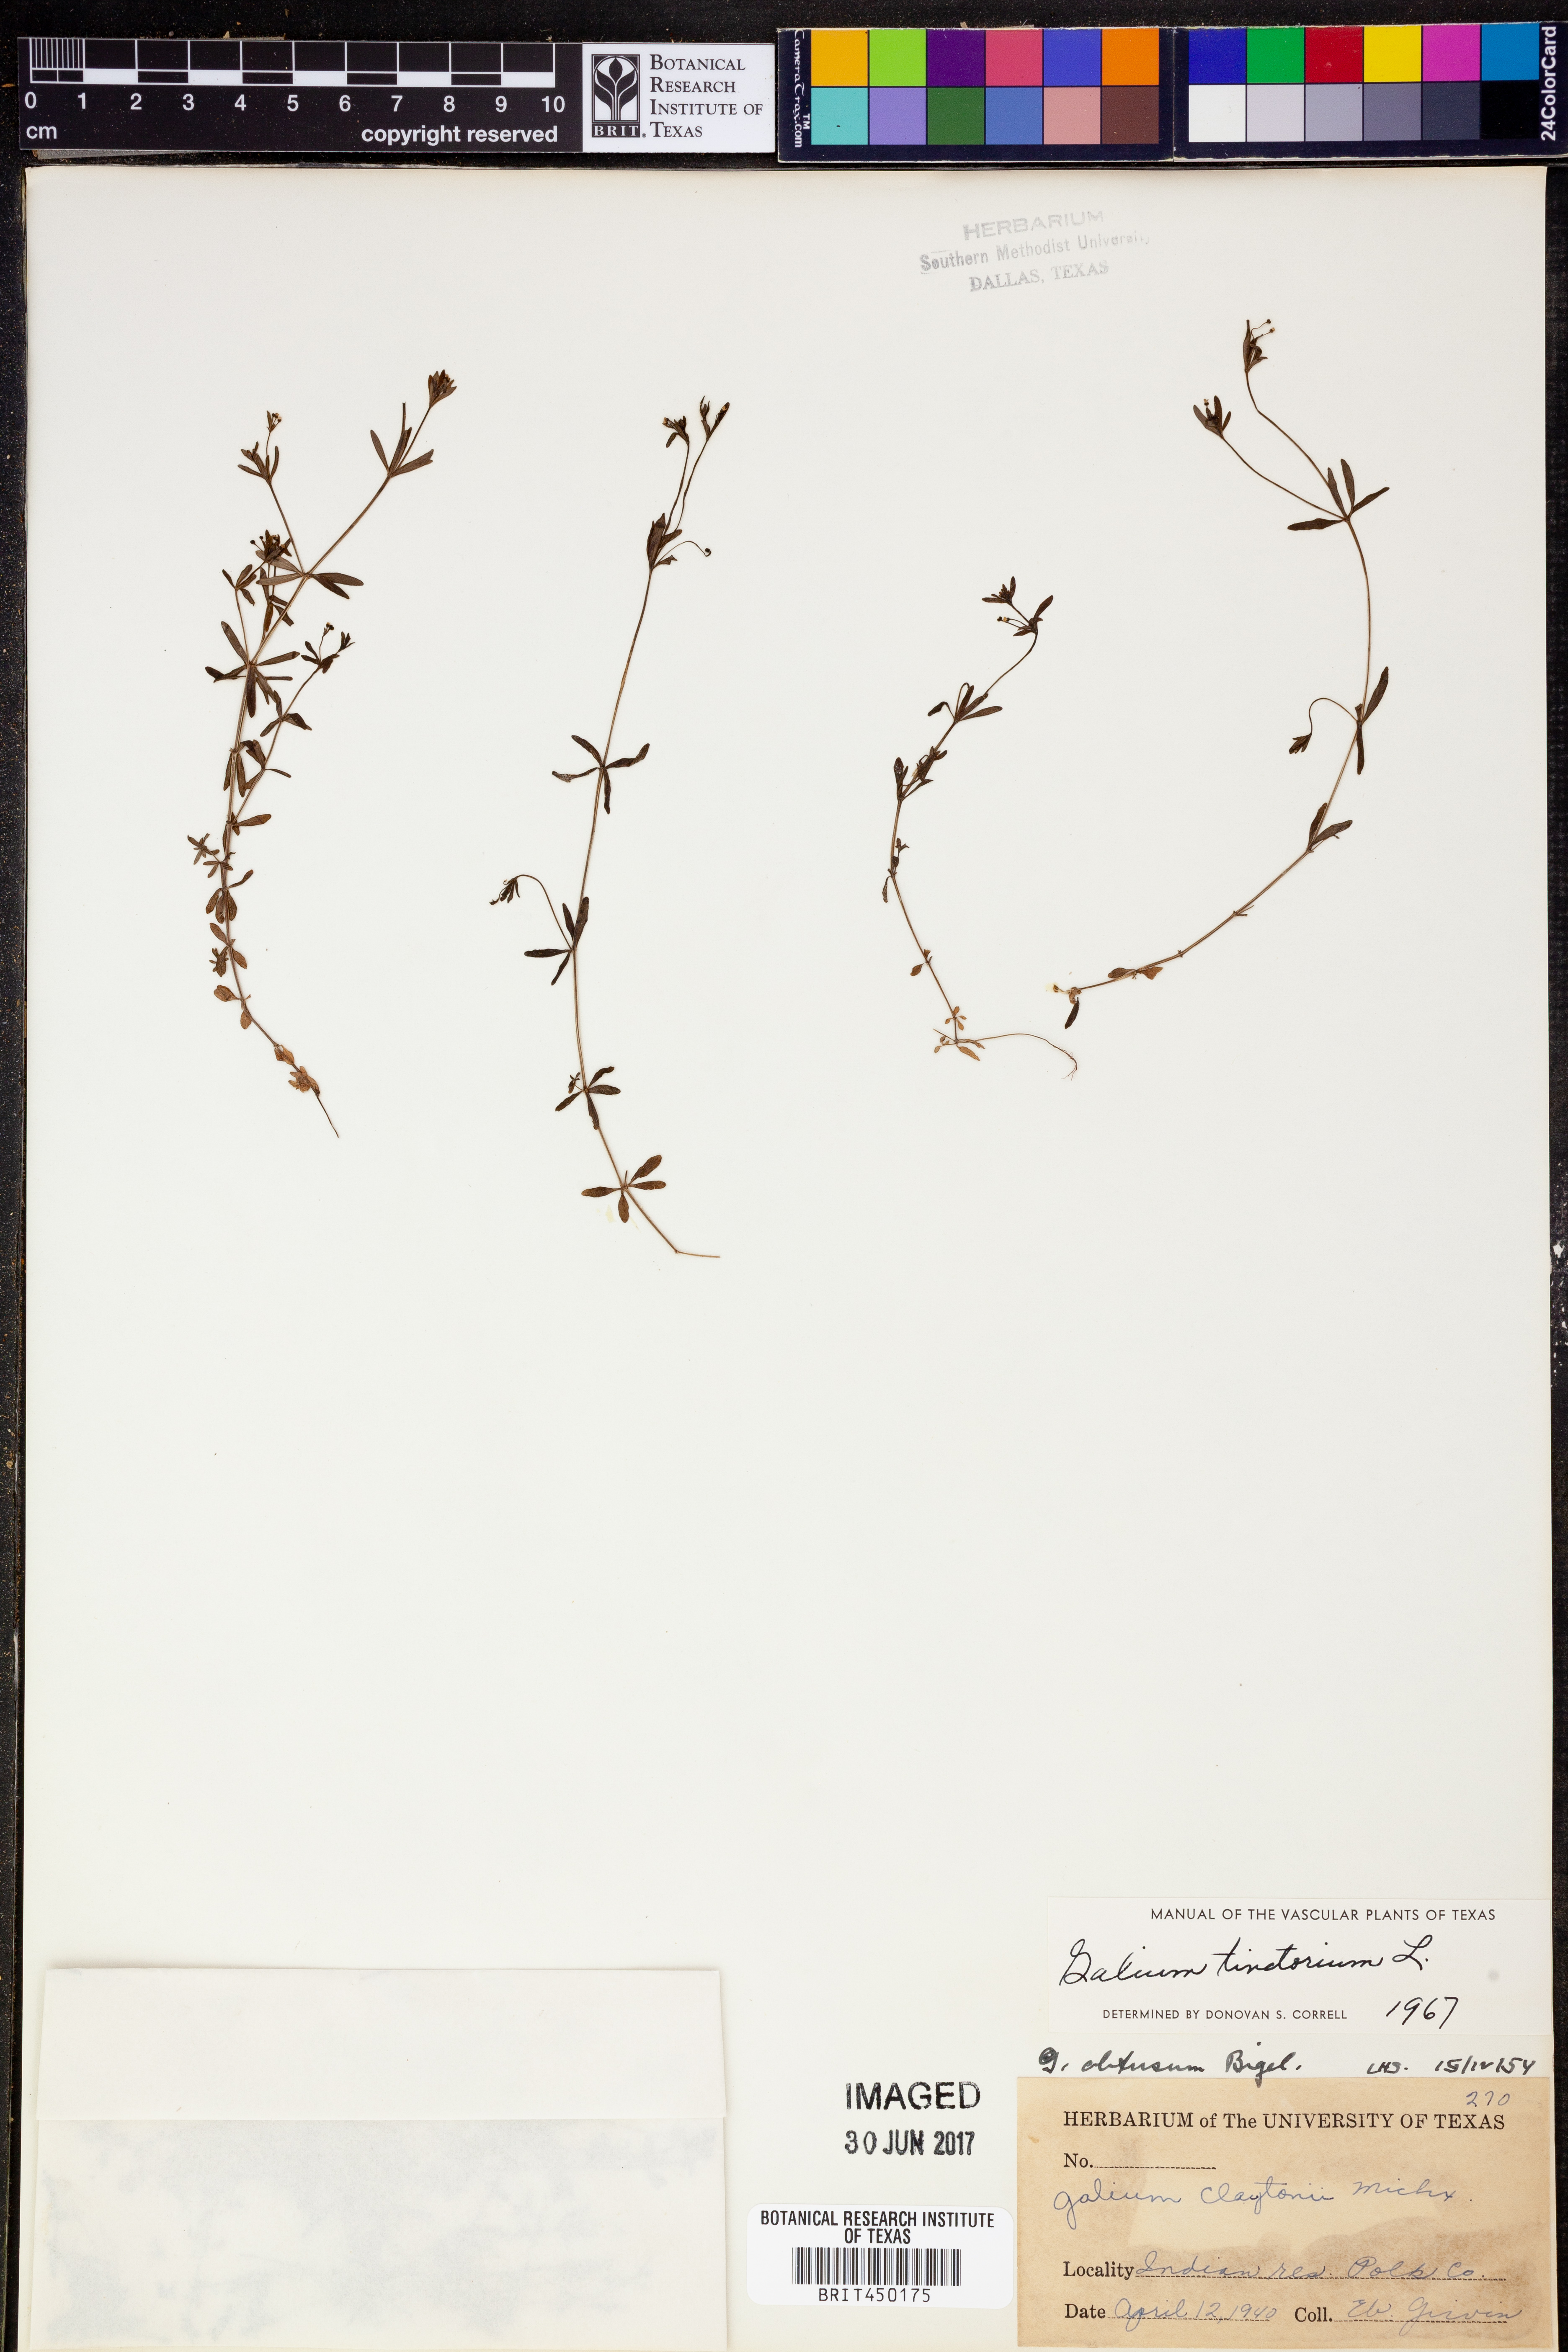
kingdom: Plantae
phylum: Tracheophyta
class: Magnoliopsida
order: Gentianales
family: Rubiaceae
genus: Asperula
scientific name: Asperula tinctoria
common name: Dyer's woodruff
